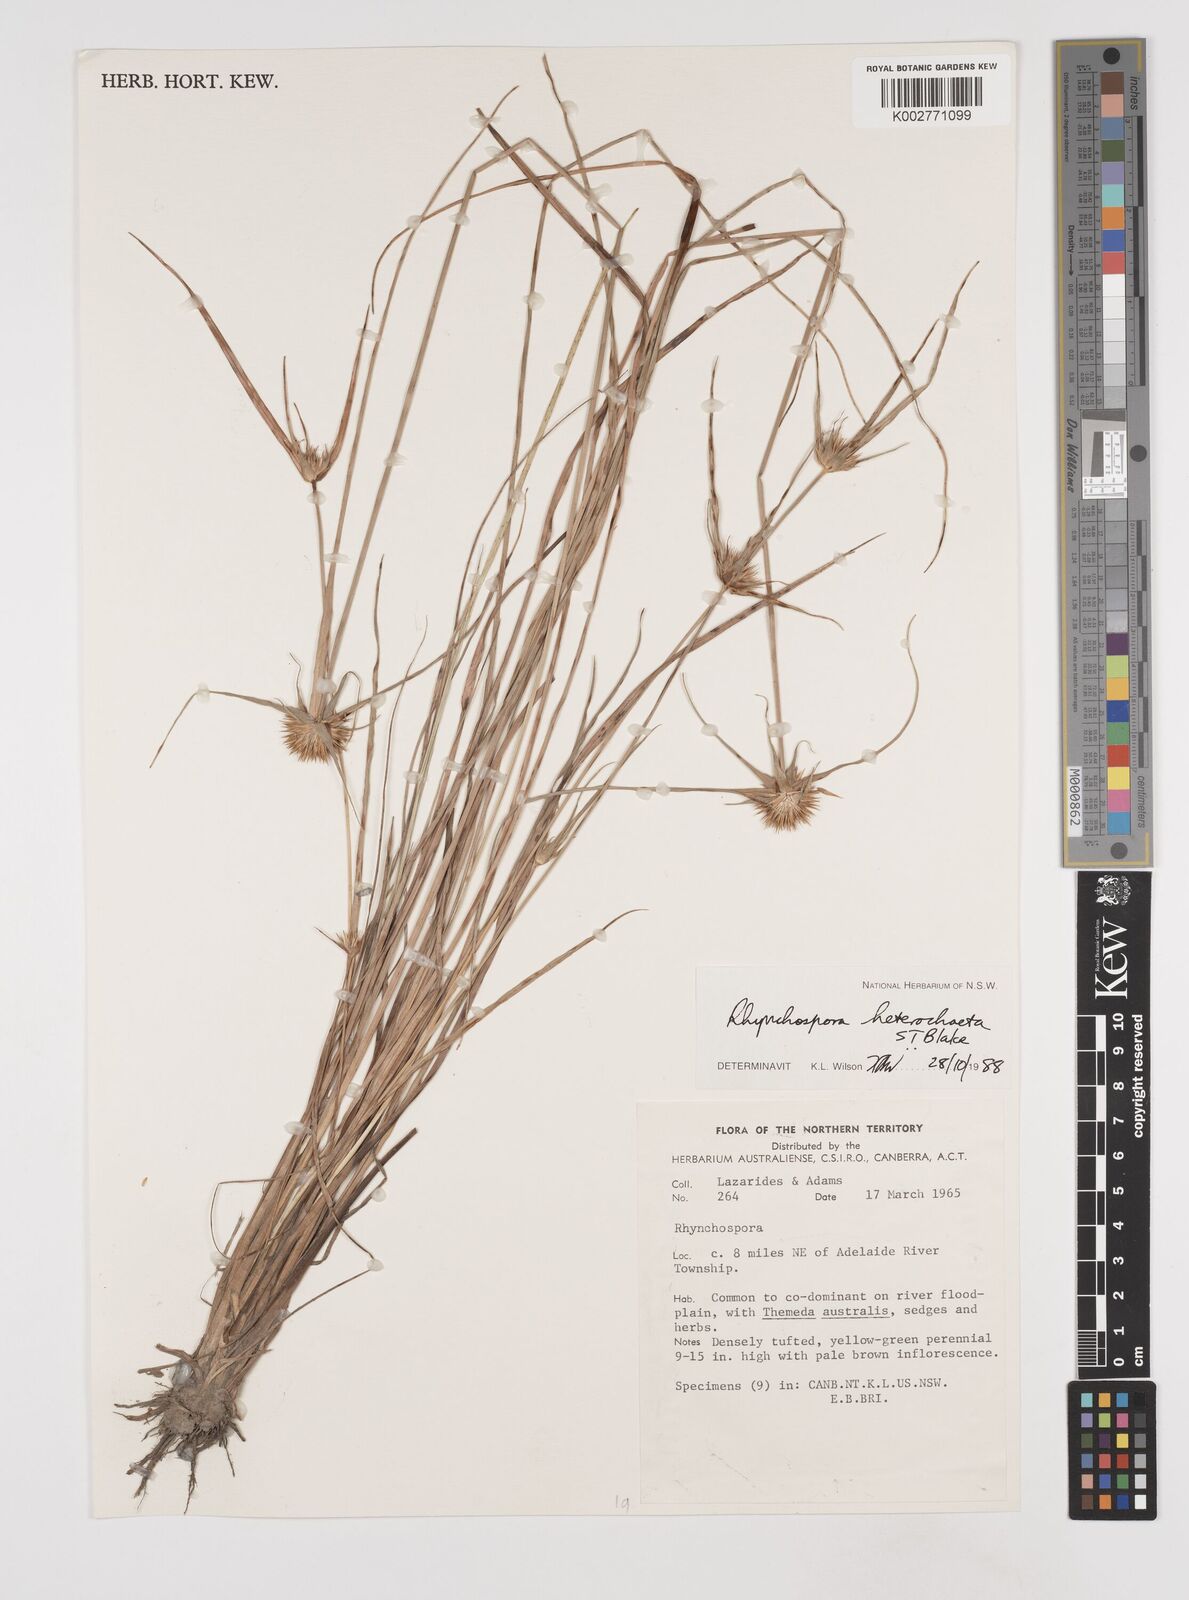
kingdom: Plantae
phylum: Tracheophyta
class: Liliopsida
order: Poales
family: Cyperaceae
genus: Rhynchospora
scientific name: Rhynchospora heterochaeta
